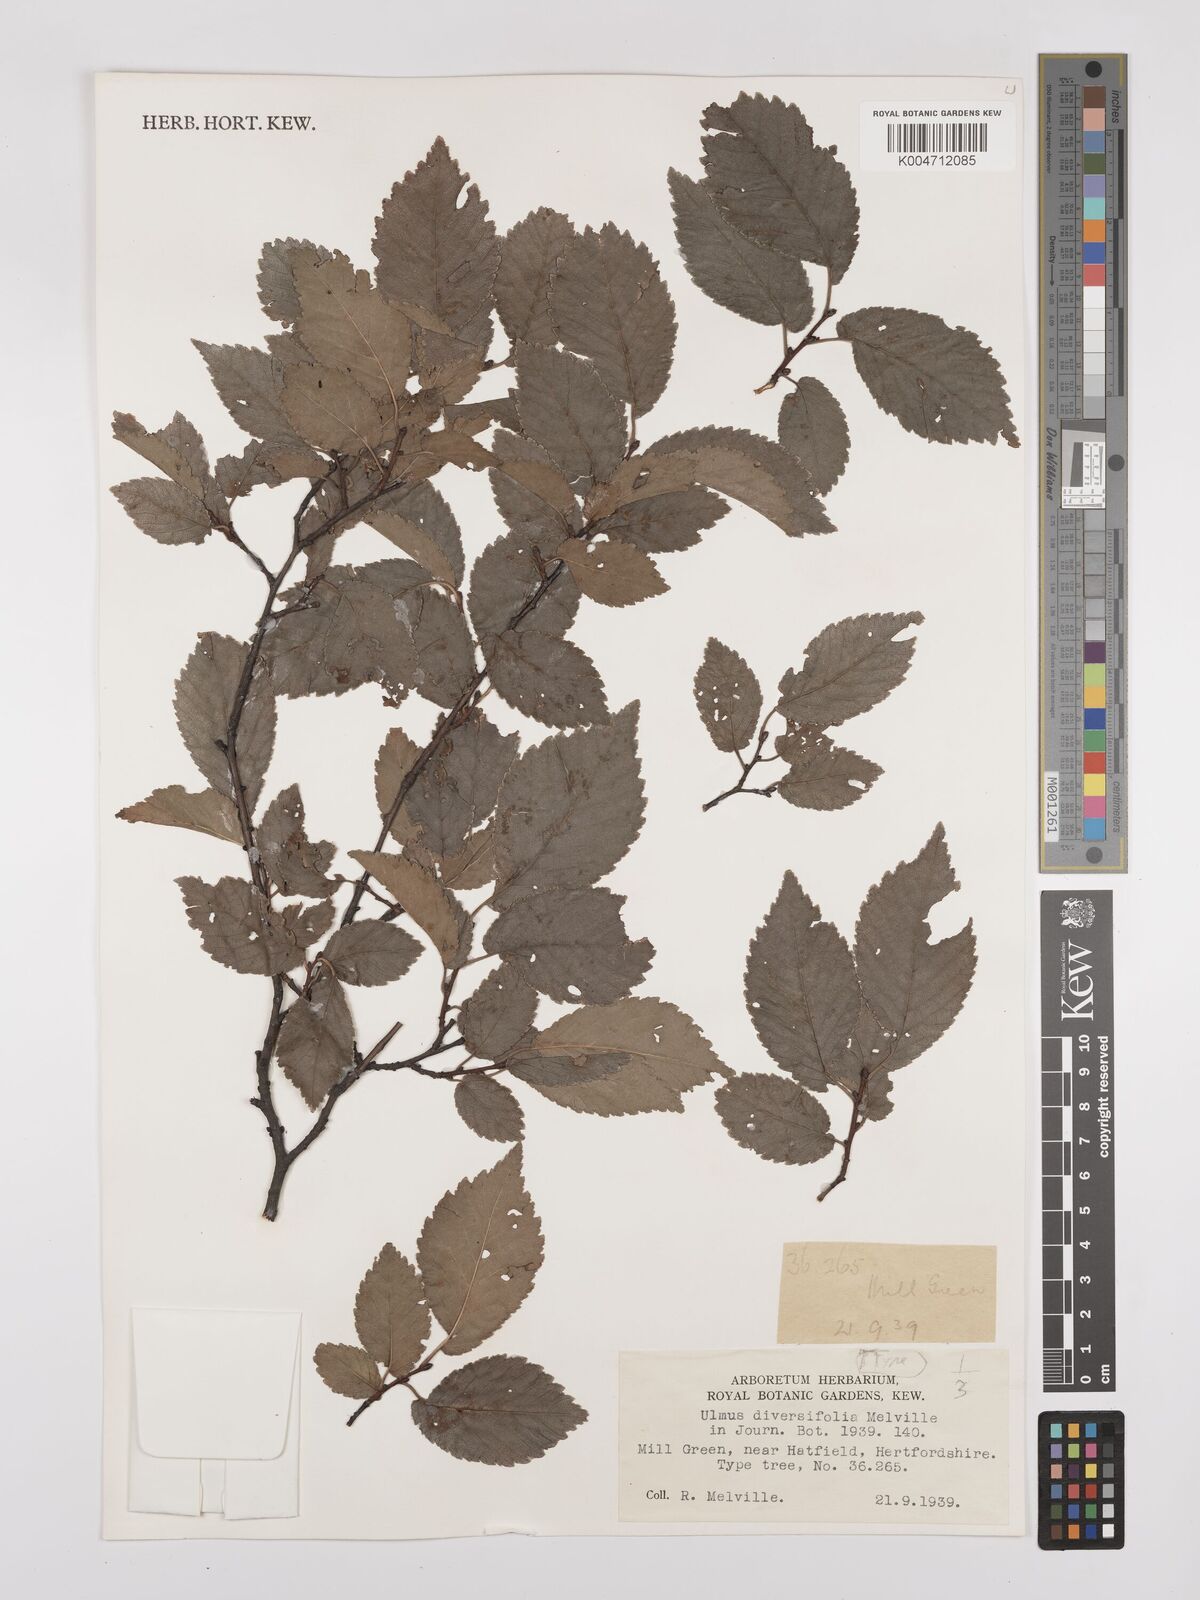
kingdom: Plantae
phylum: Tracheophyta
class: Magnoliopsida
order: Rosales
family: Ulmaceae
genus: Ulmus
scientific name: Ulmus minor
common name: Small-leaved elm
